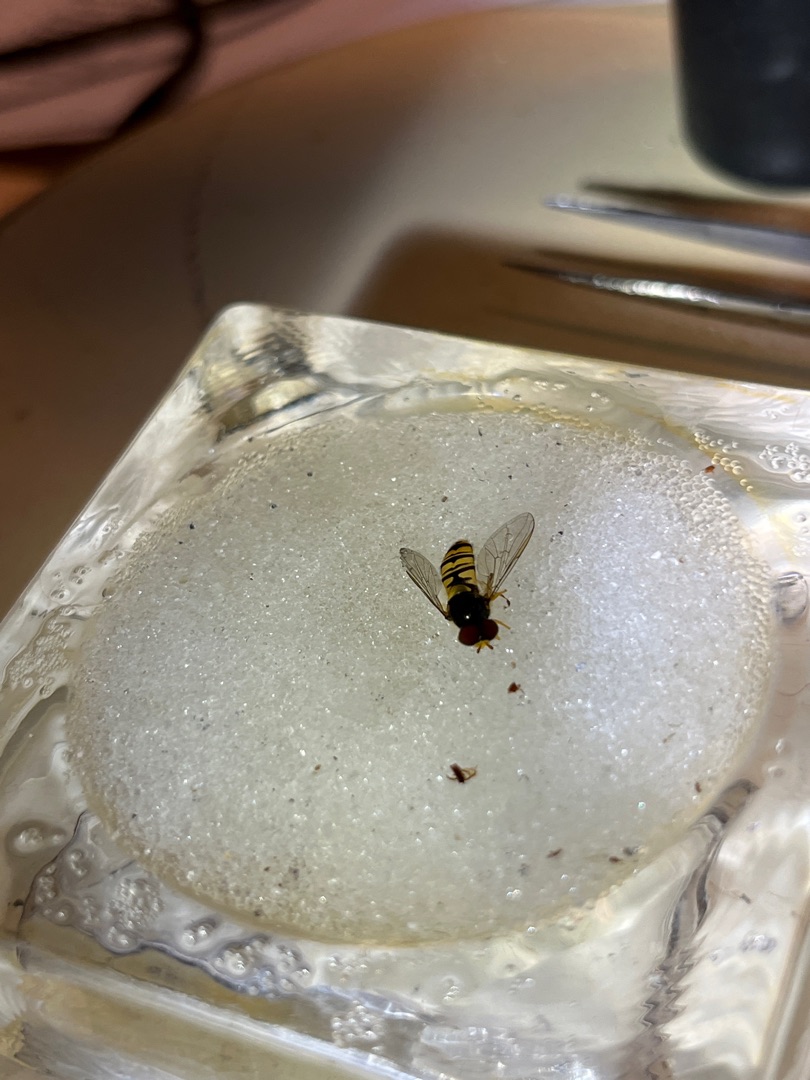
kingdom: Animalia
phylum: Arthropoda
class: Insecta
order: Diptera
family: Syrphidae
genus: Episyrphus
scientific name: Episyrphus balteatus
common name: Dobbeltbåndet svirreflue
